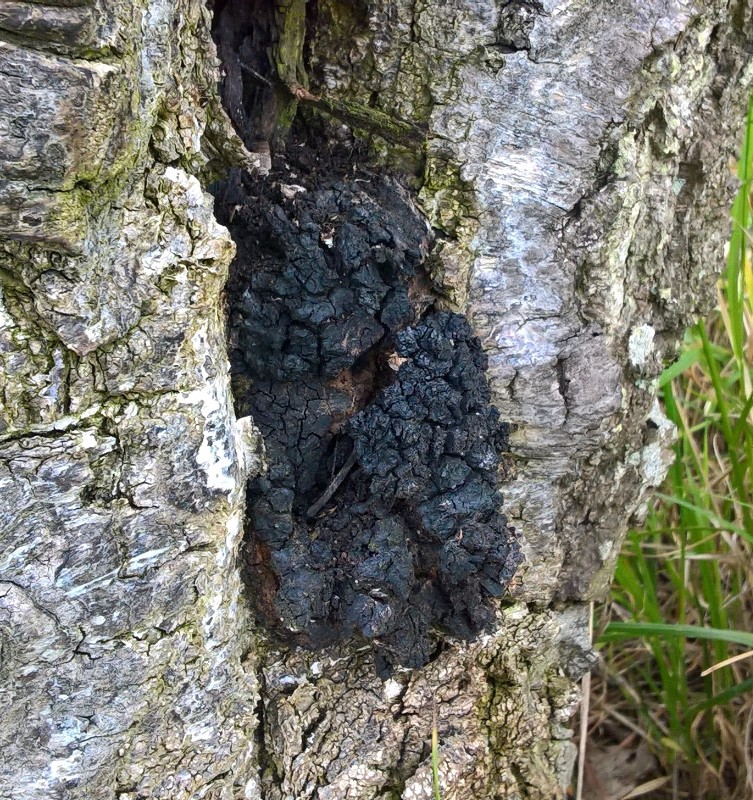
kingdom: Fungi
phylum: Basidiomycota
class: Agaricomycetes
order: Hymenochaetales
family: Hymenochaetaceae
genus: Inonotus
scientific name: Inonotus obliquus
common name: birke-spejlporesvamp
